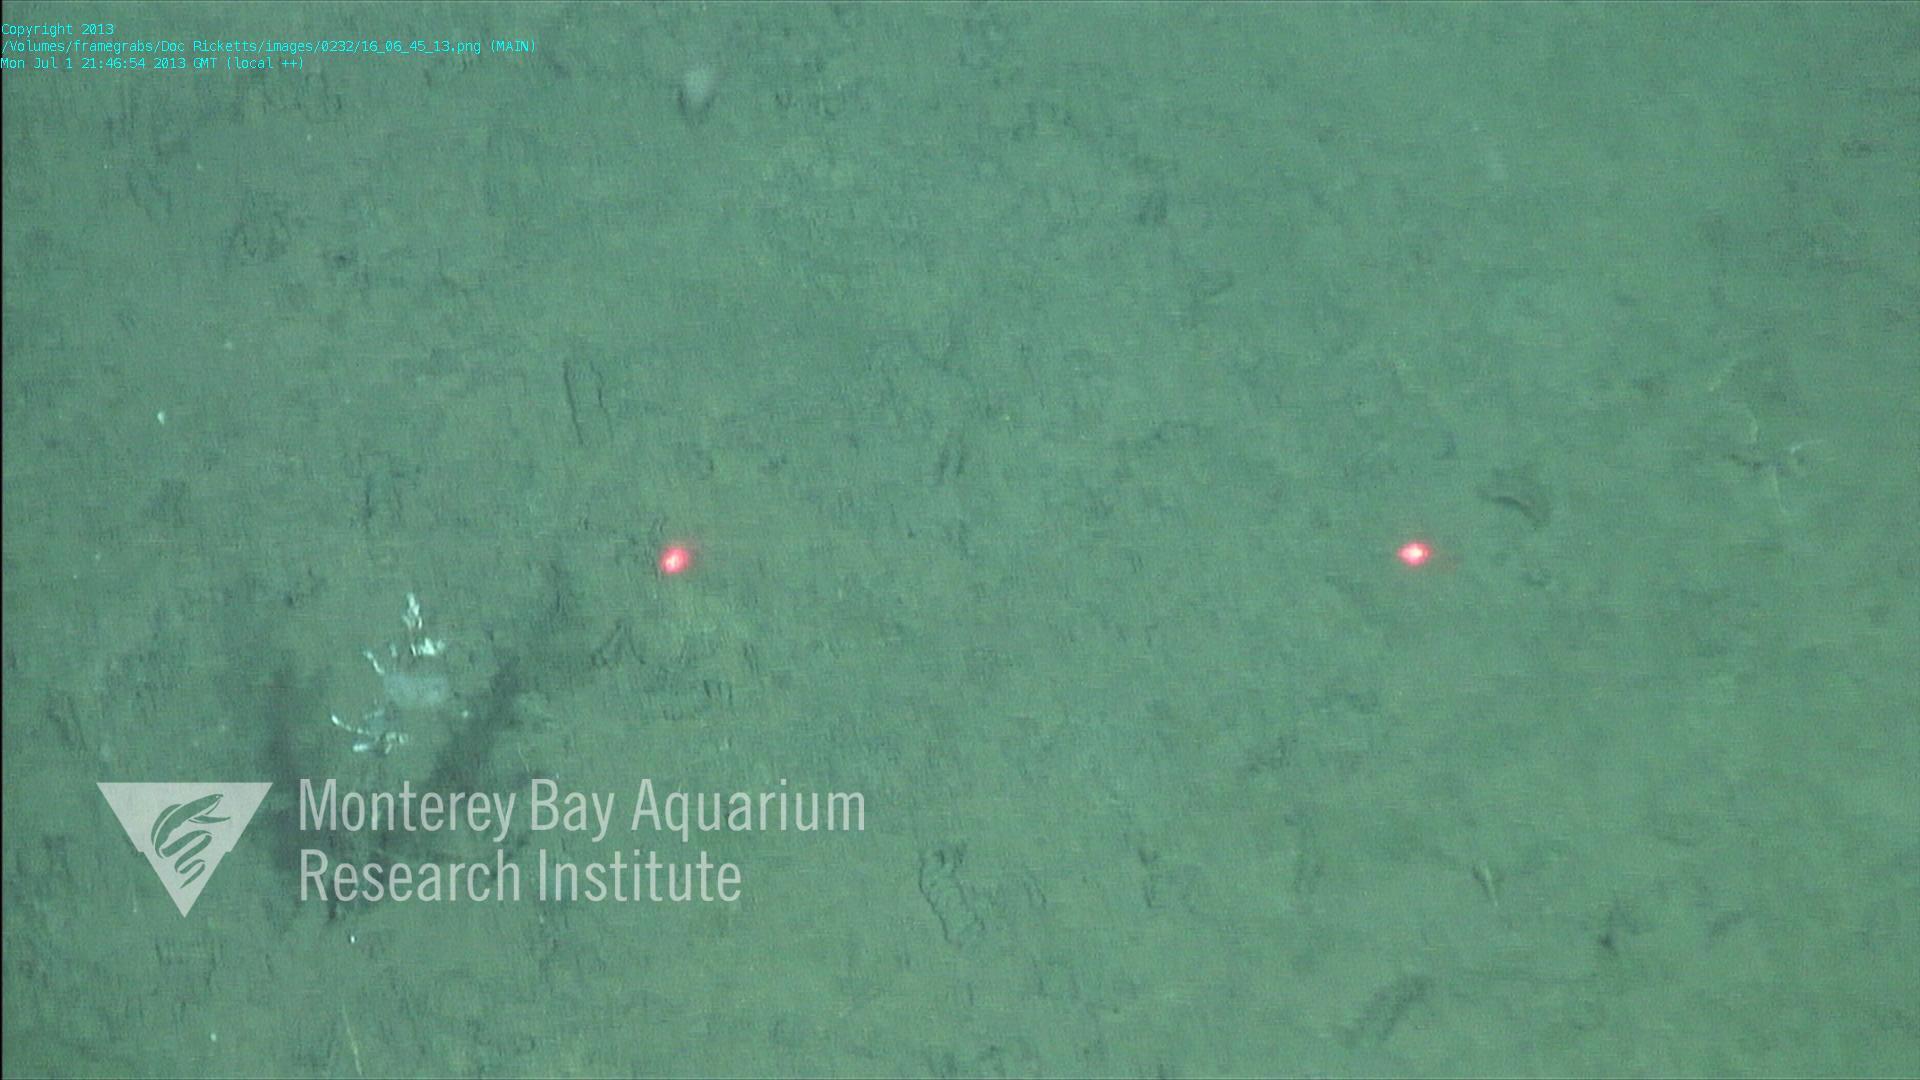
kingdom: Animalia
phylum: Porifera
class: Hexactinellida
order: Lyssacinosida
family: Rossellidae
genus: Bathydorus
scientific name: Bathydorus spinosus
